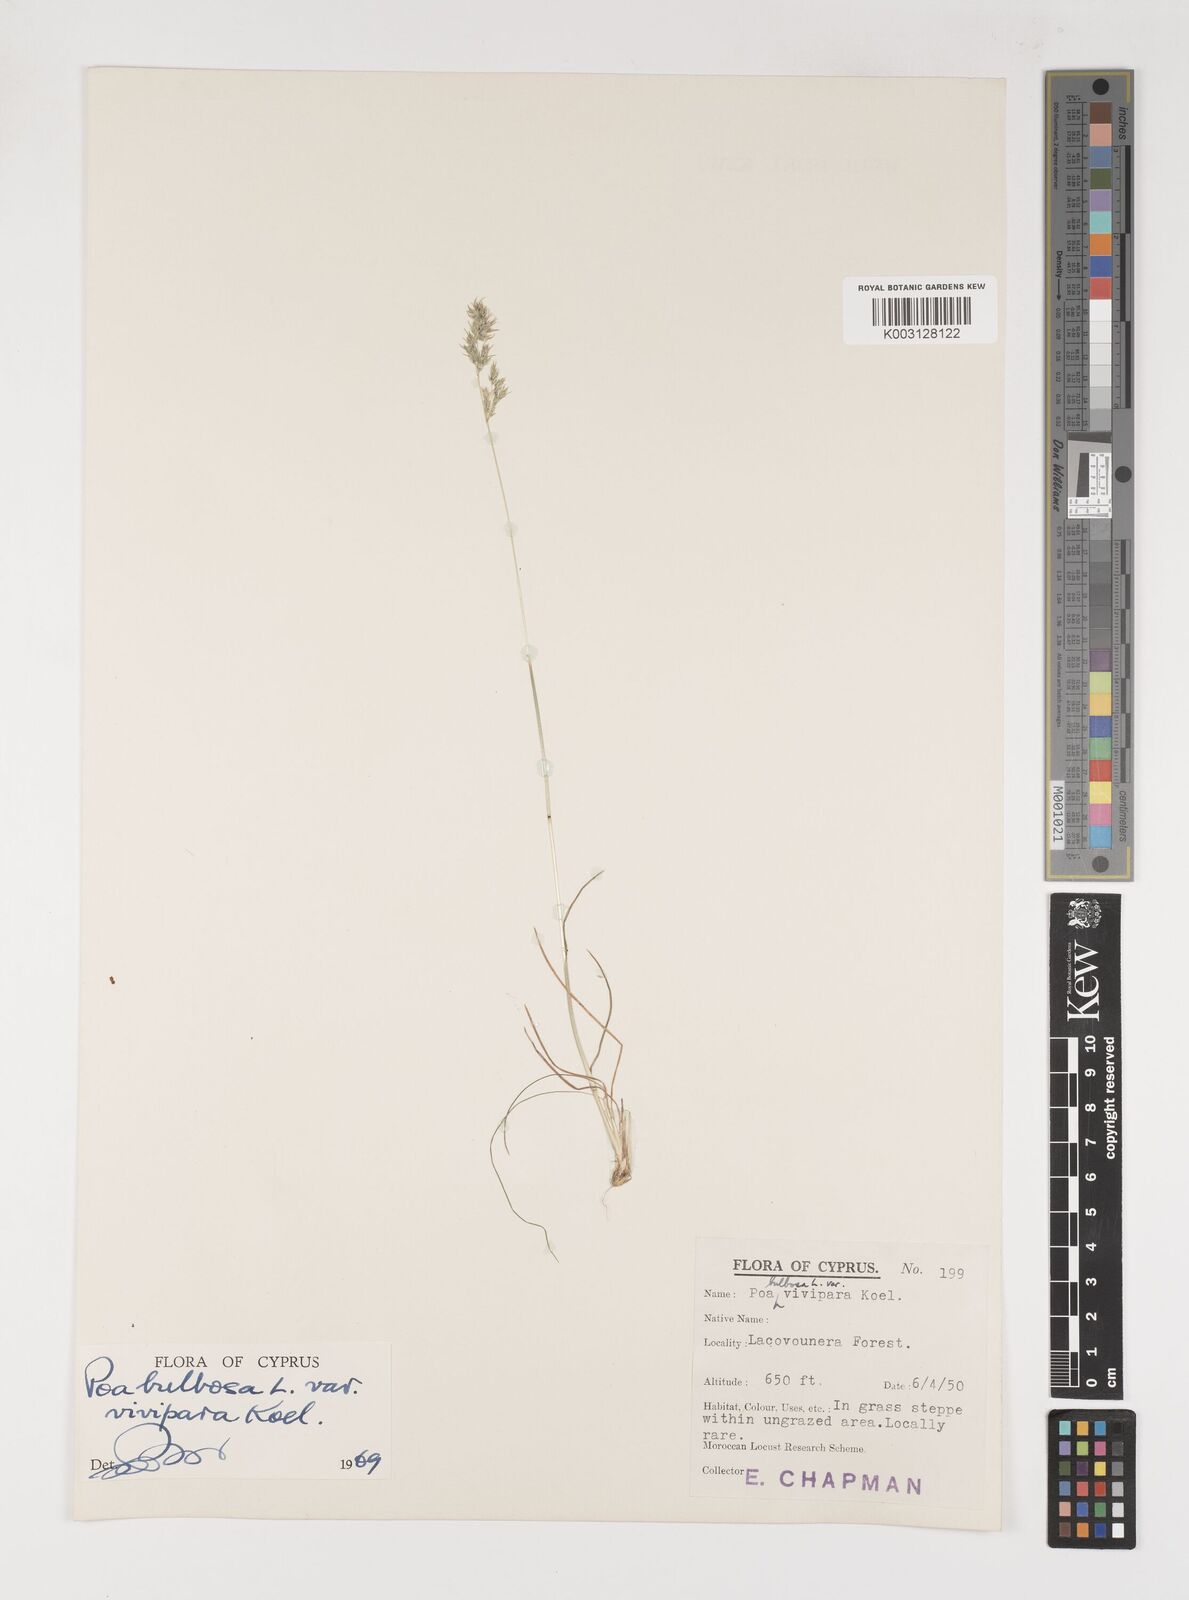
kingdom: Plantae
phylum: Tracheophyta
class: Liliopsida
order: Poales
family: Poaceae
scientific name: Poaceae
